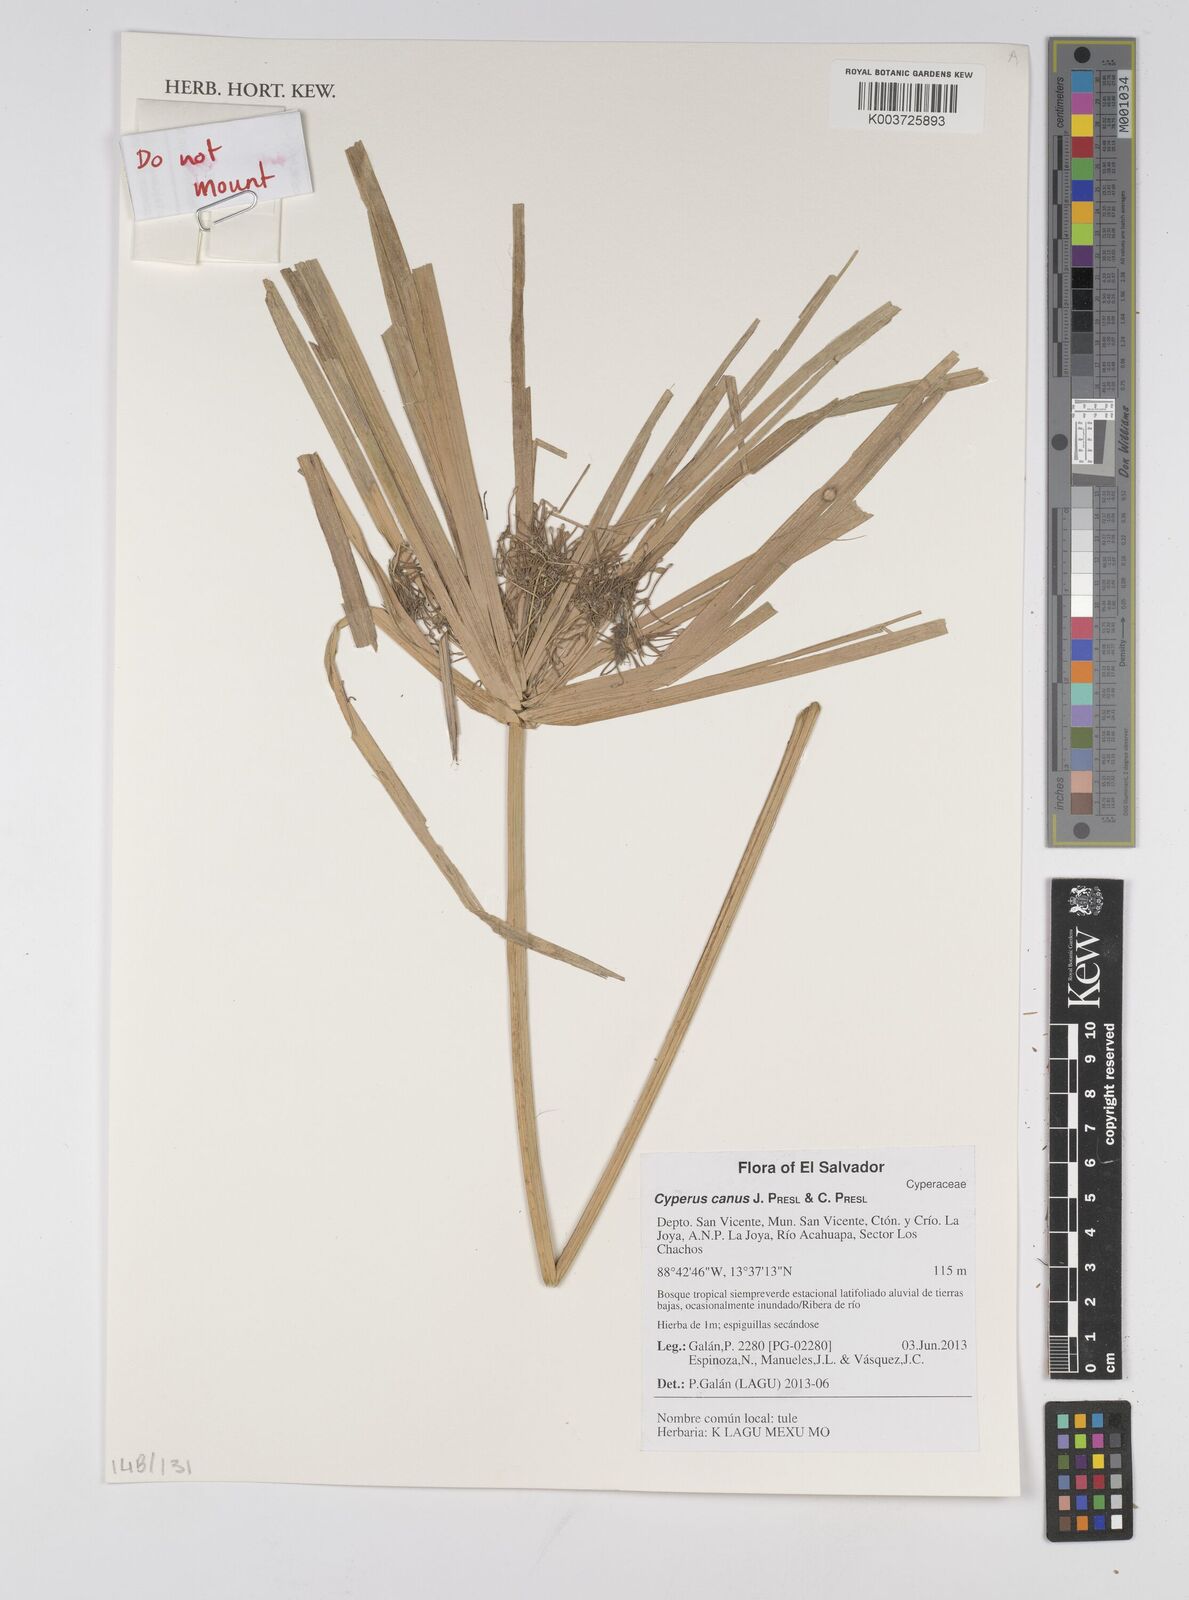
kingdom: Plantae
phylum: Tracheophyta
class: Liliopsida
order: Poales
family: Cyperaceae
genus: Cyperus
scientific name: Cyperus canus
